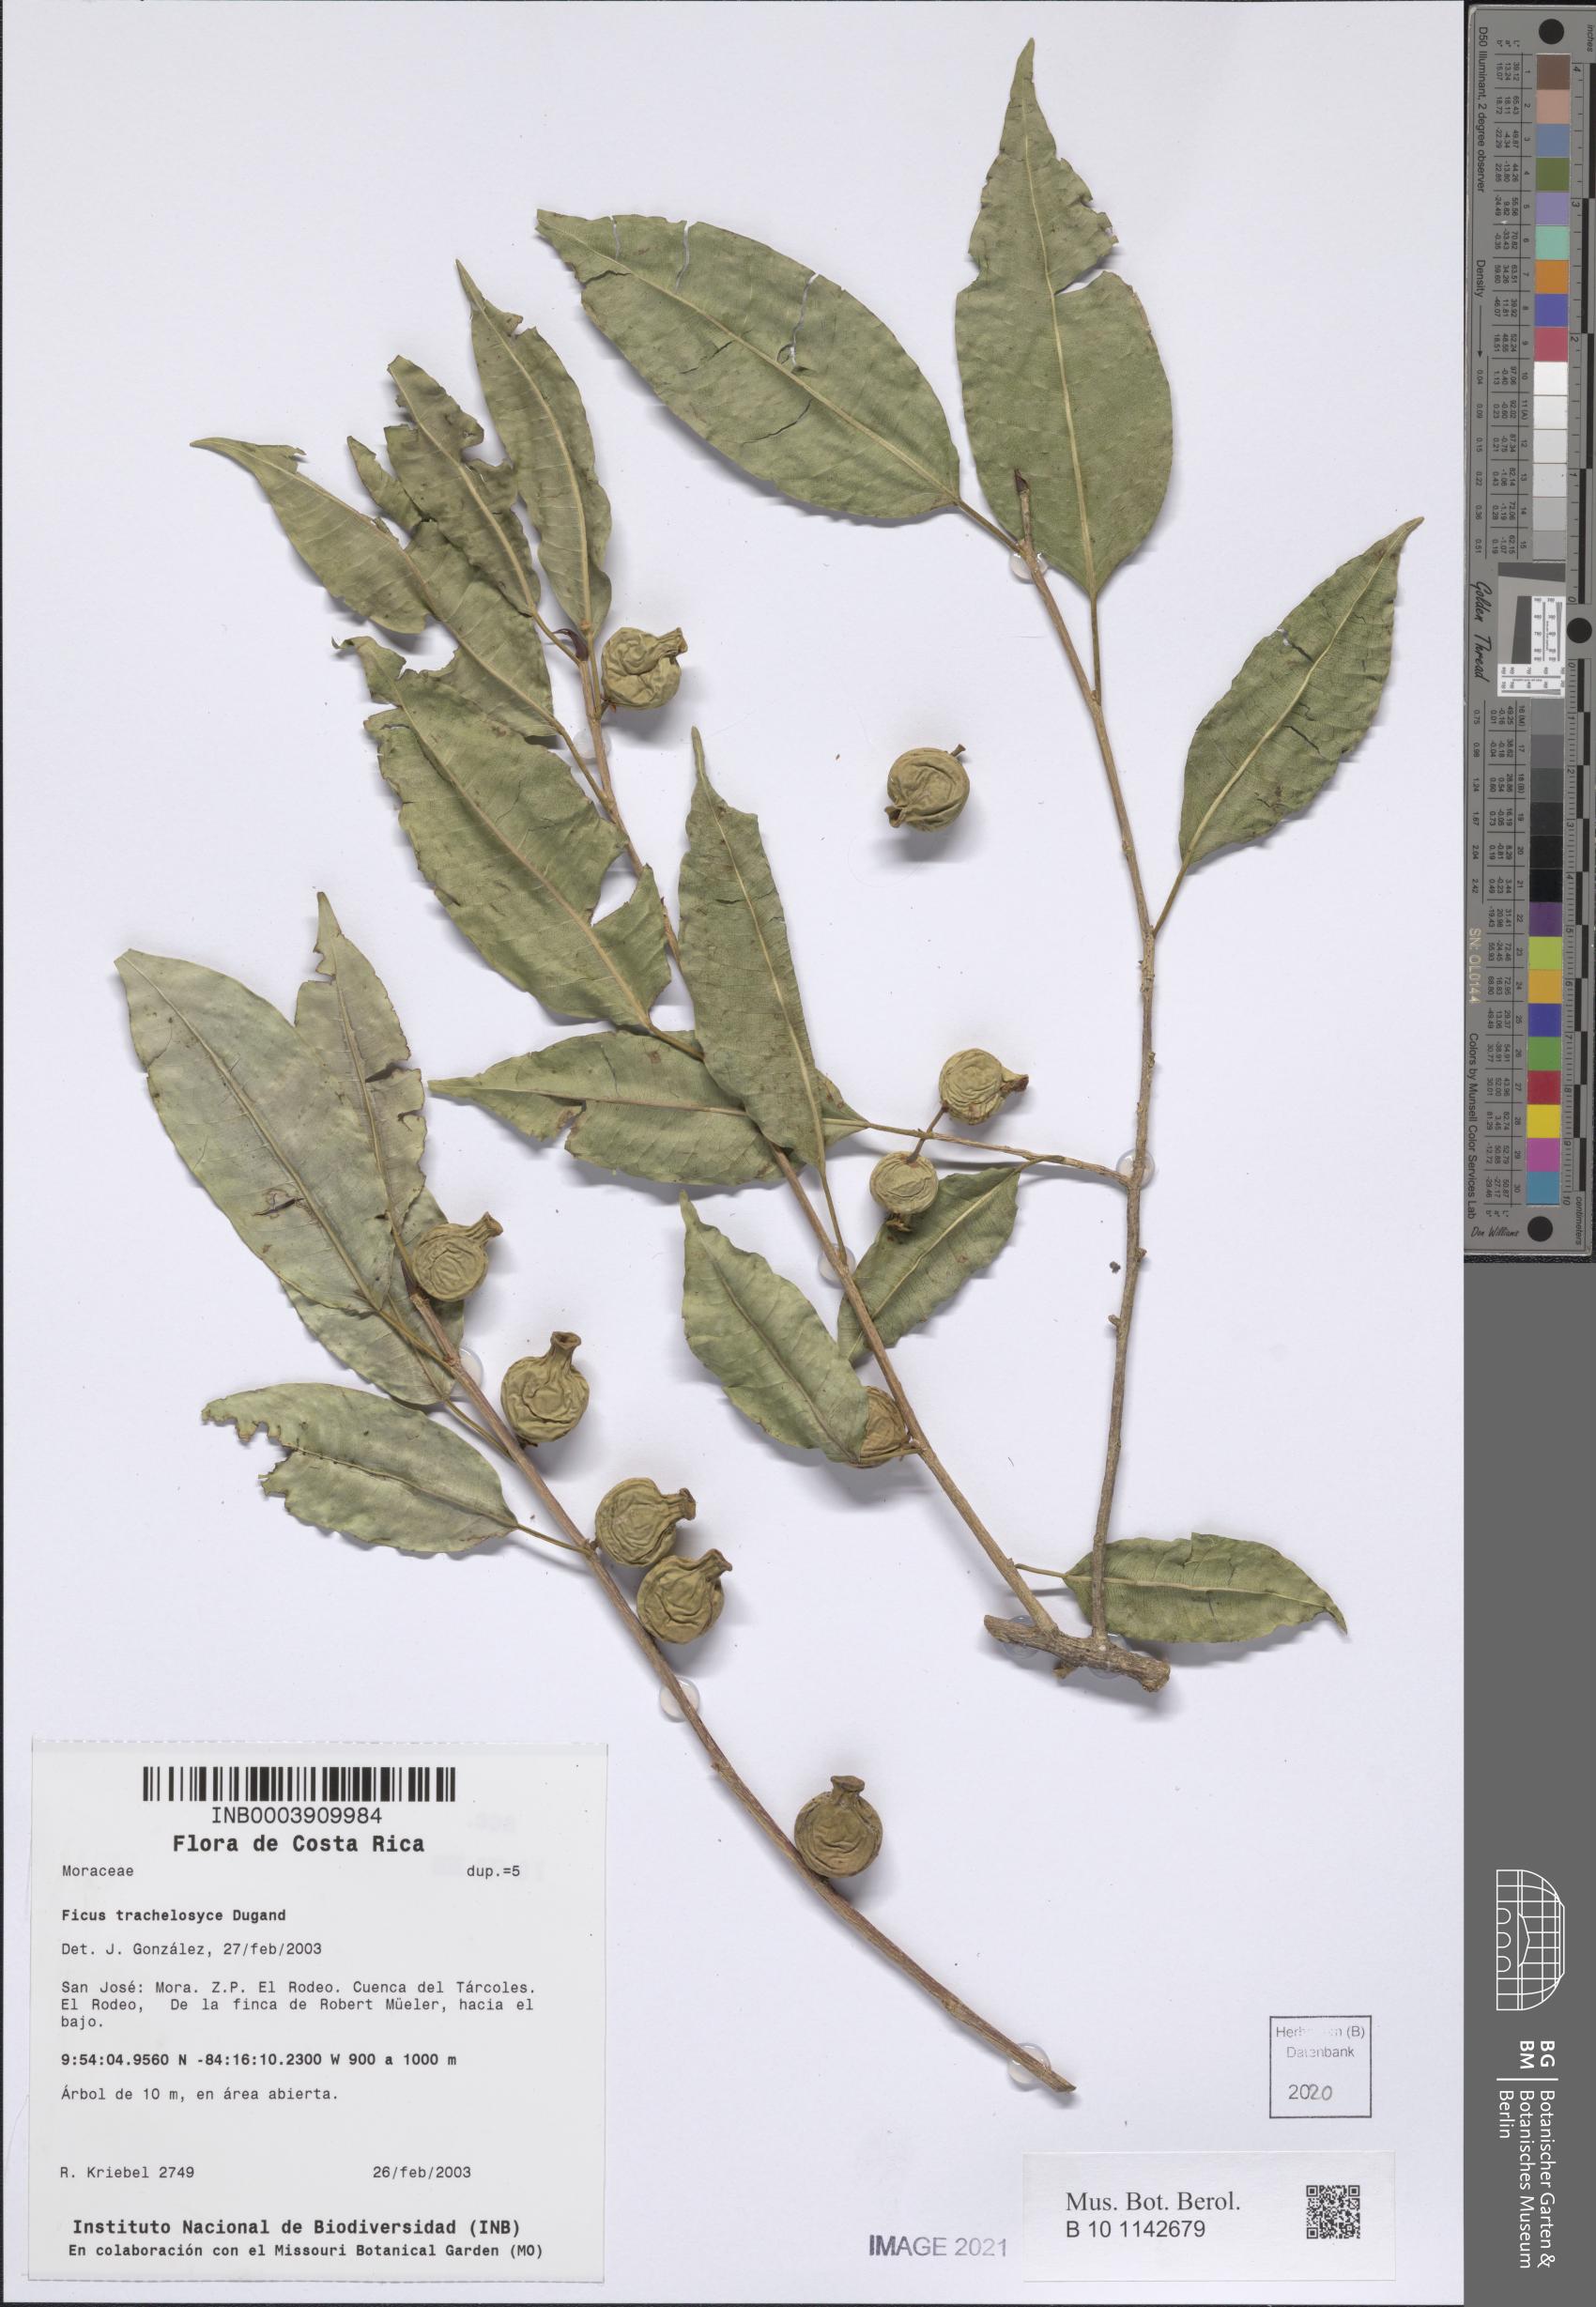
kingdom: Plantae
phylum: Tracheophyta
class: Magnoliopsida
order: Rosales
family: Moraceae
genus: Ficus
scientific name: Ficus pertusa
